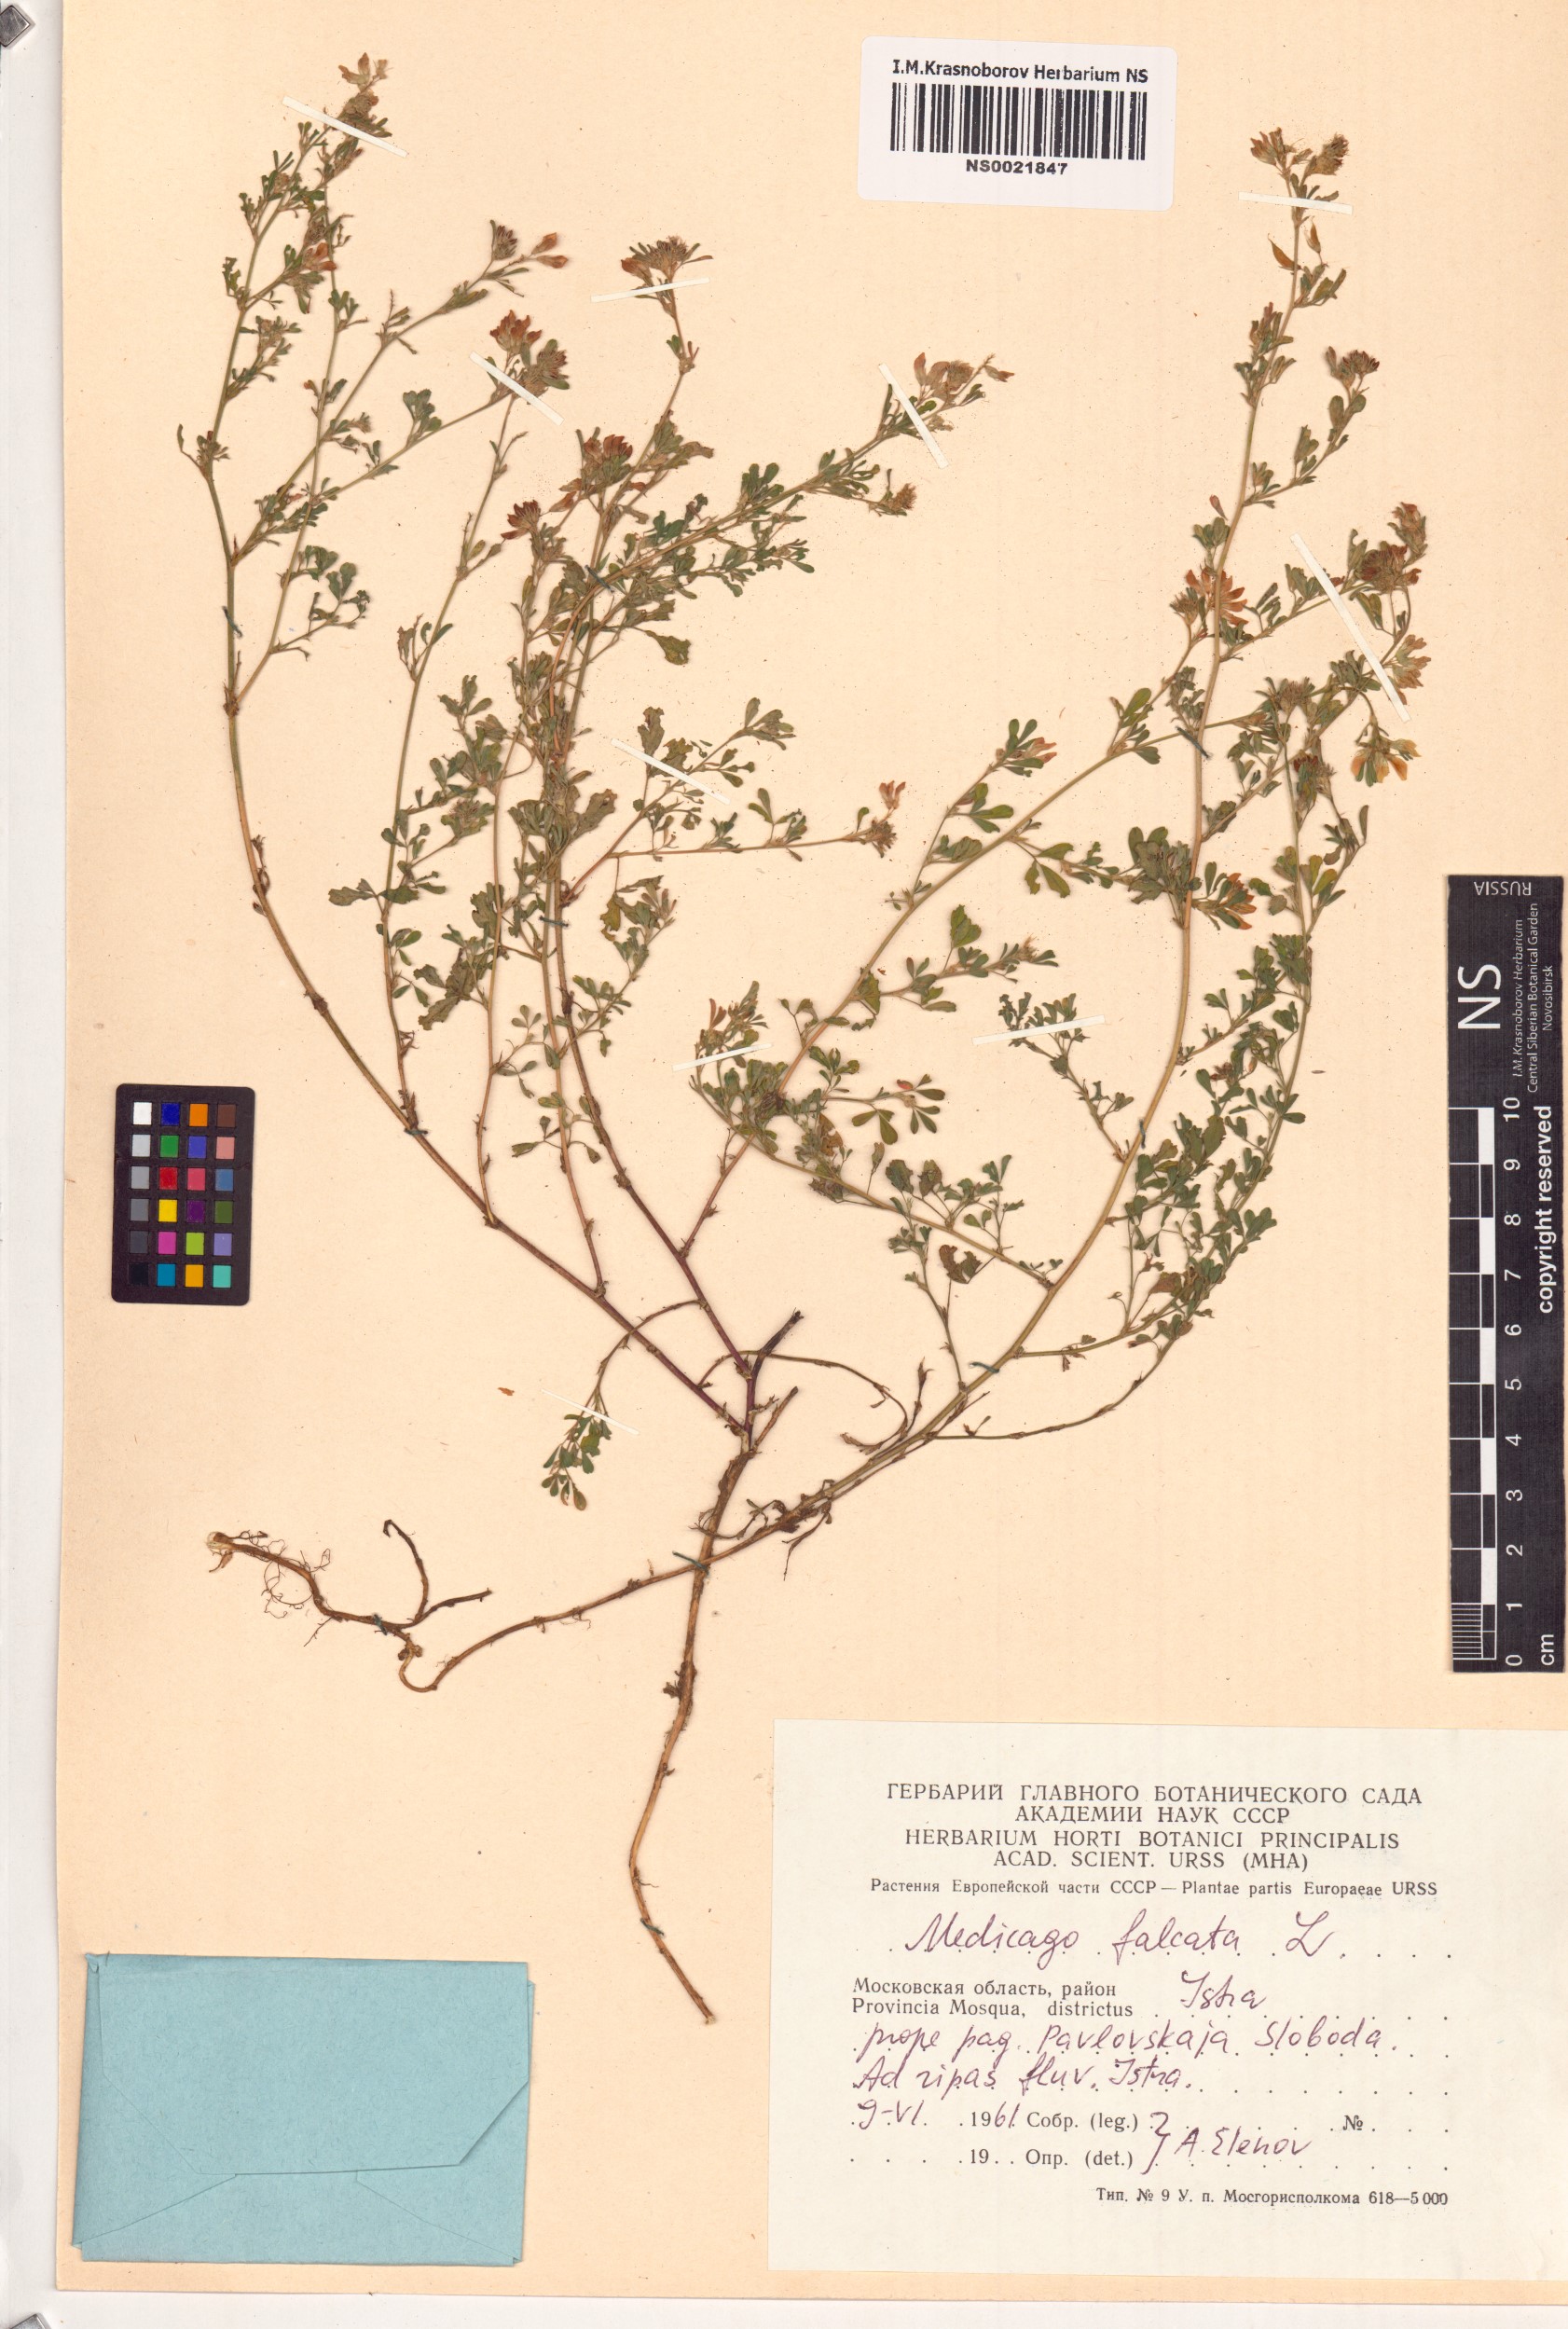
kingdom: Plantae
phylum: Tracheophyta
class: Magnoliopsida
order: Fabales
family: Fabaceae
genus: Medicago
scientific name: Medicago falcata
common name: Sickle medick
